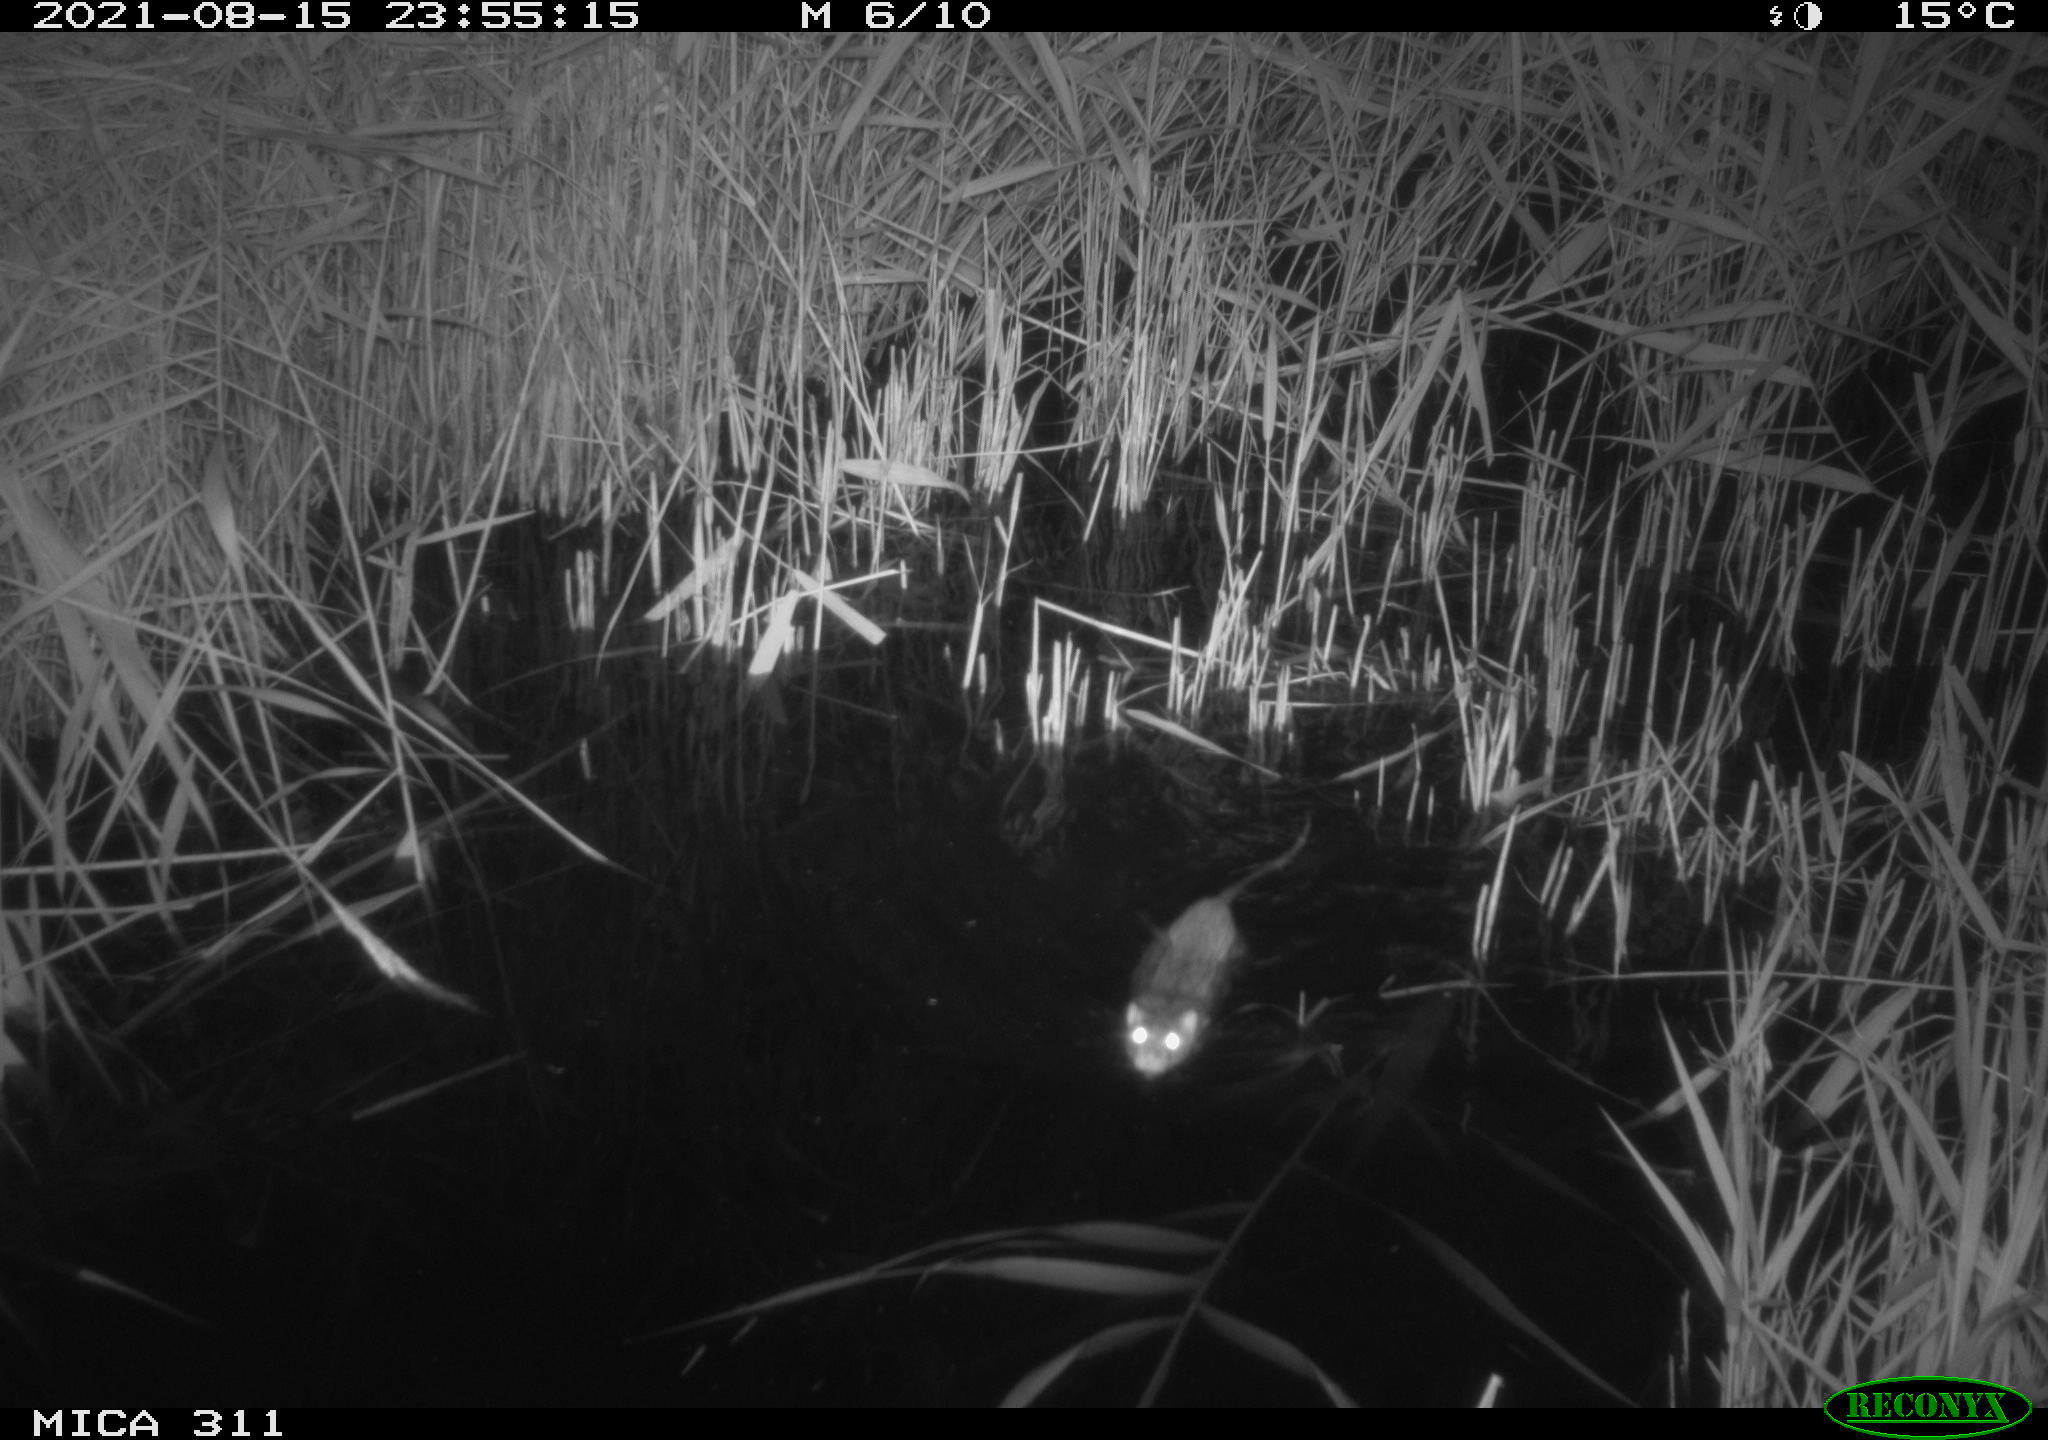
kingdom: Animalia
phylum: Chordata
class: Mammalia
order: Rodentia
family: Muridae
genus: Rattus
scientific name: Rattus norvegicus
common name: Brown rat
